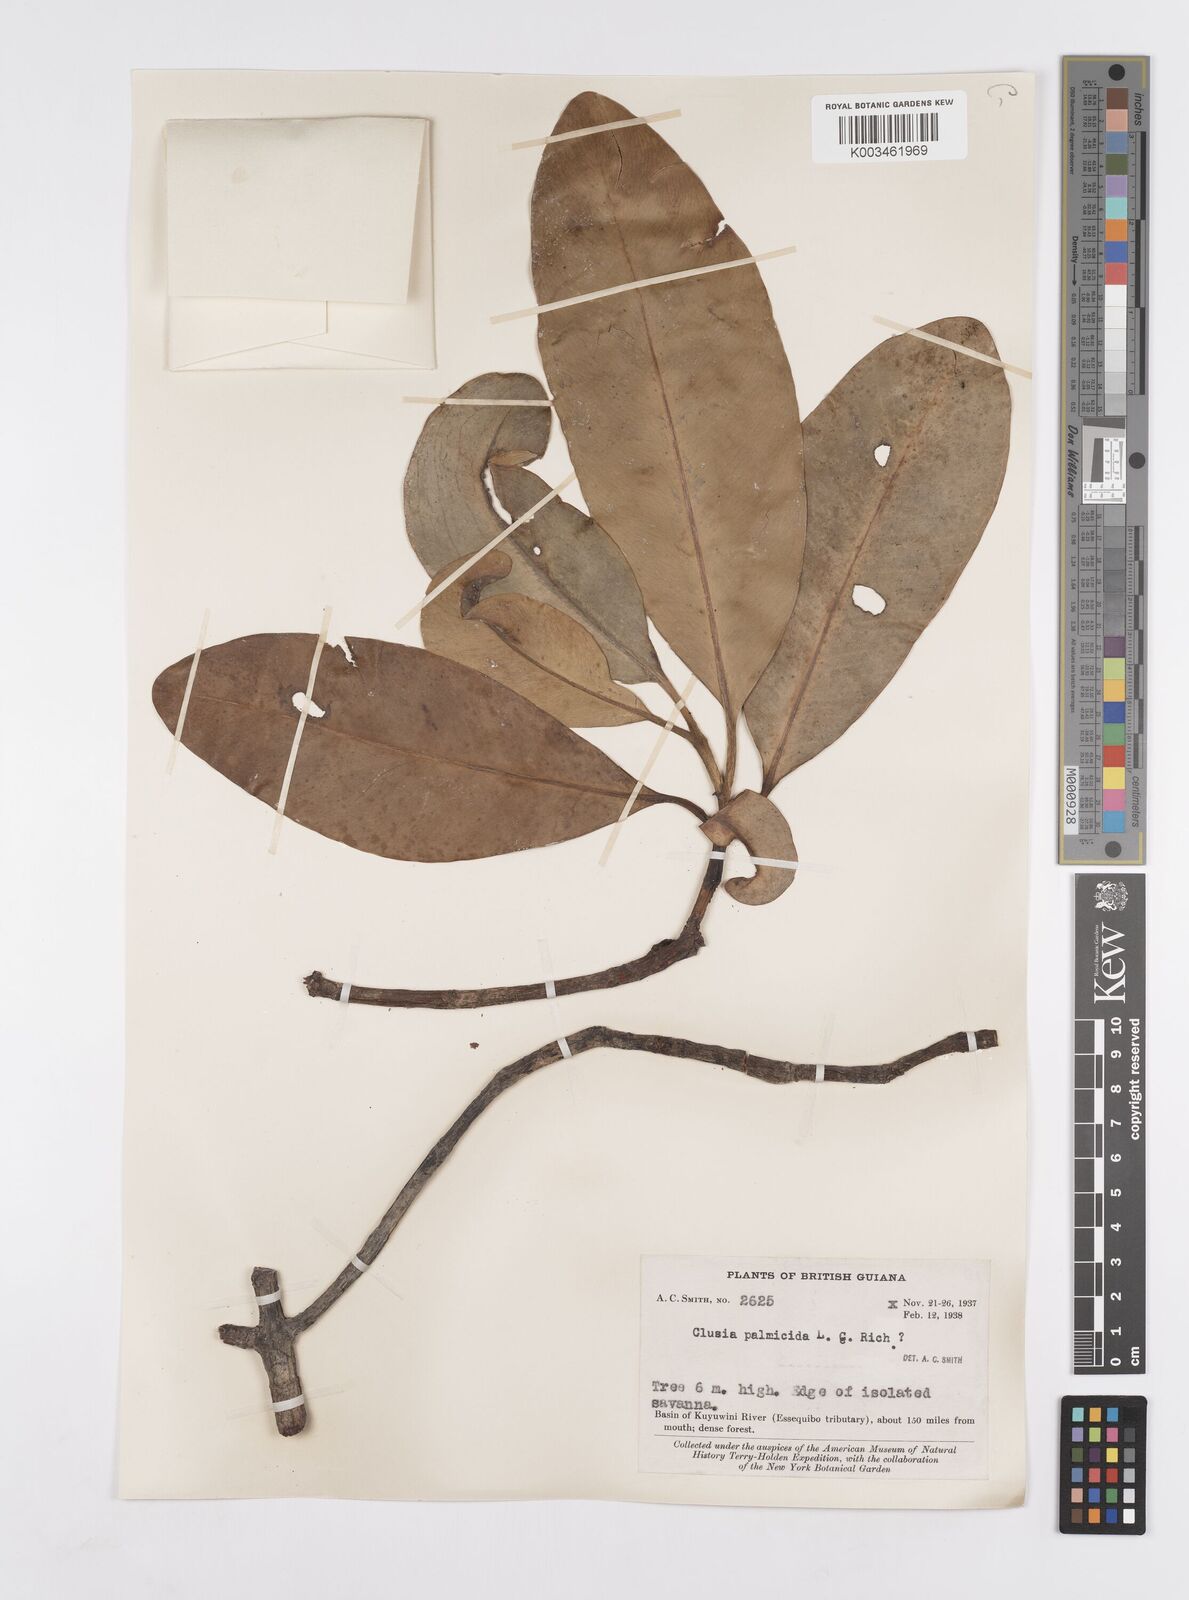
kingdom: Plantae
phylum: Tracheophyta
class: Magnoliopsida
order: Malpighiales
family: Clusiaceae
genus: Clusia
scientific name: Clusia palmicida
